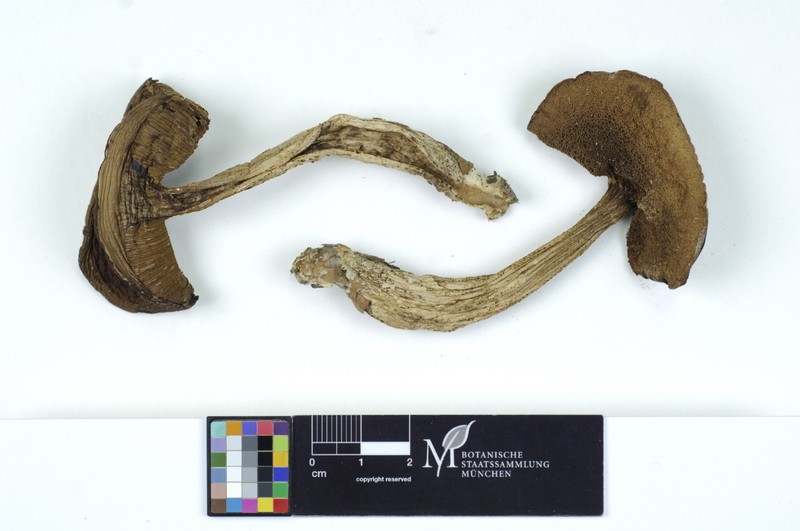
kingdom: Fungi
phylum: Basidiomycota
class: Agaricomycetes
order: Boletales
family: Boletaceae
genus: Leccinellum
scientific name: Leccinellum pseudoscabrum
